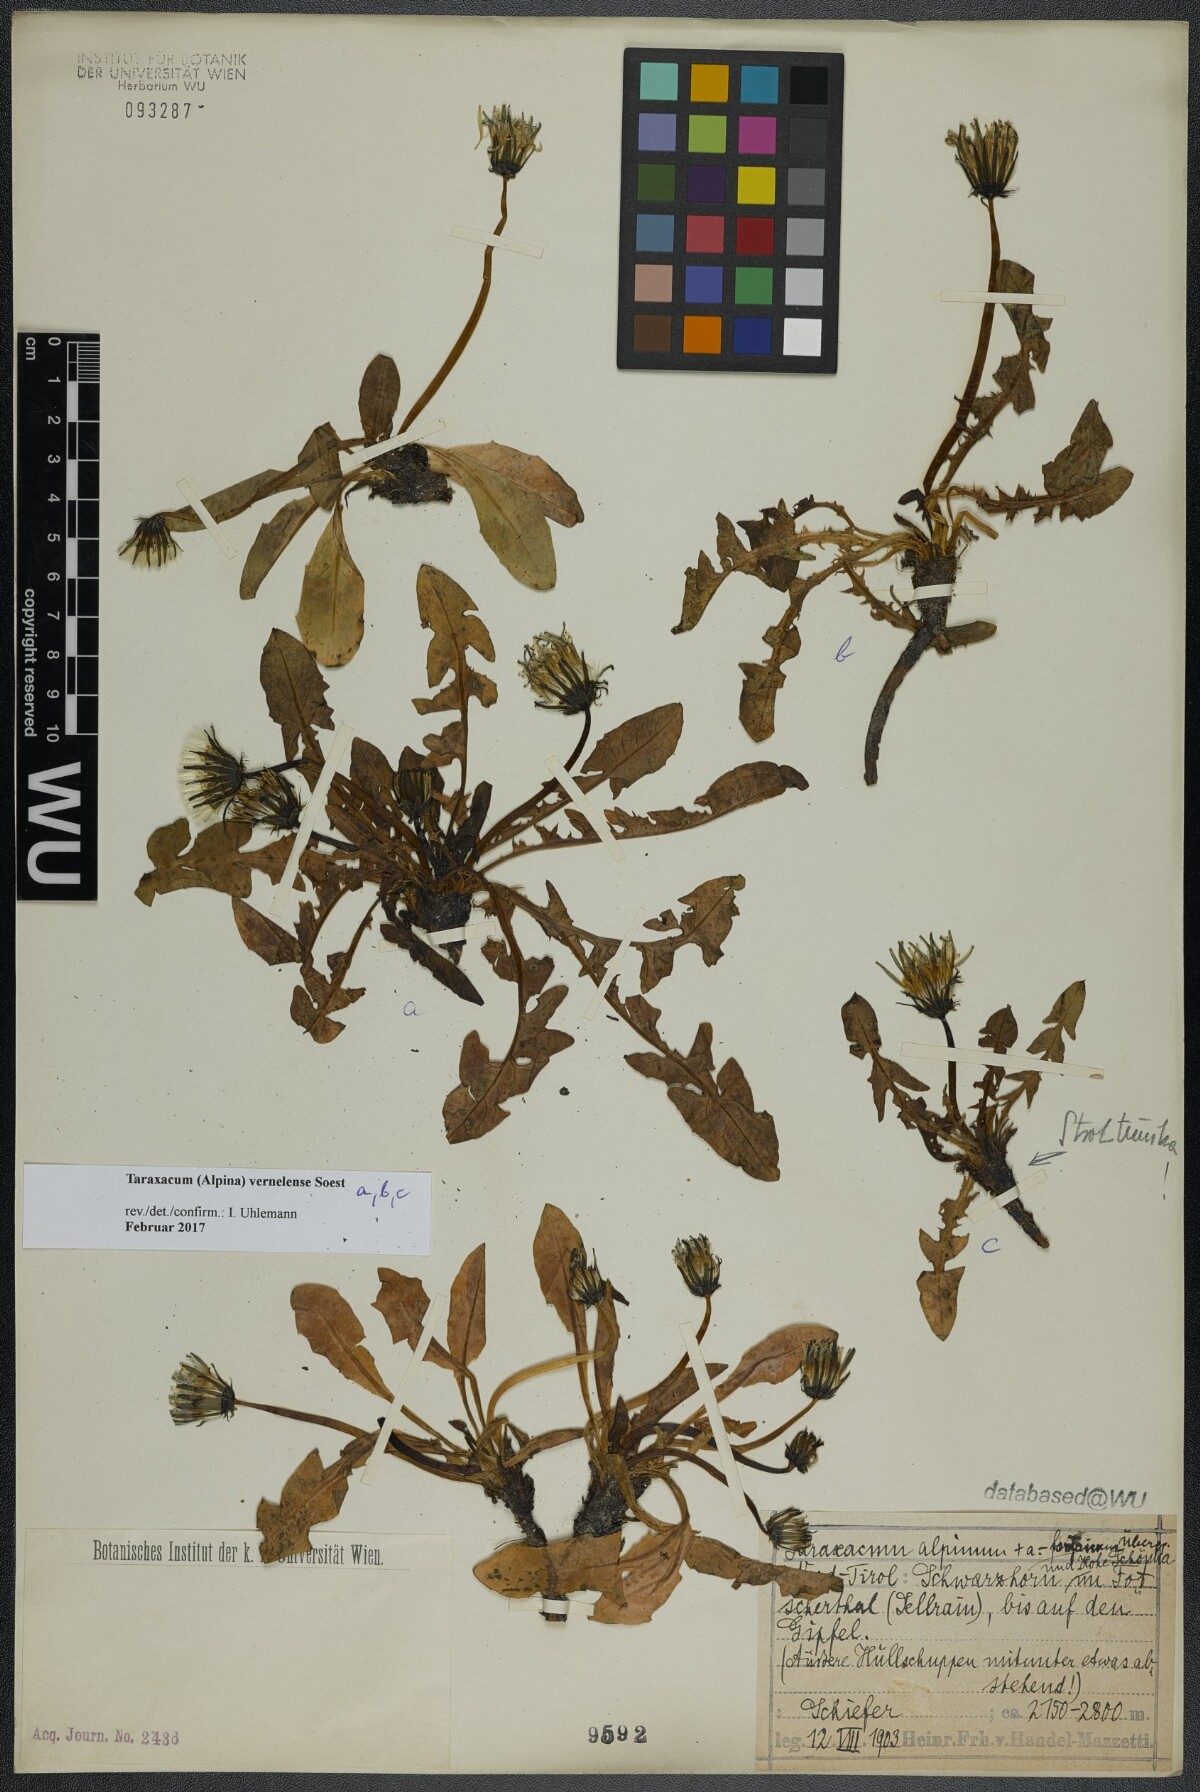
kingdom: Plantae
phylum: Tracheophyta
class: Magnoliopsida
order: Asterales
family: Asteraceae
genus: Taraxacum
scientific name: Taraxacum vernelense
